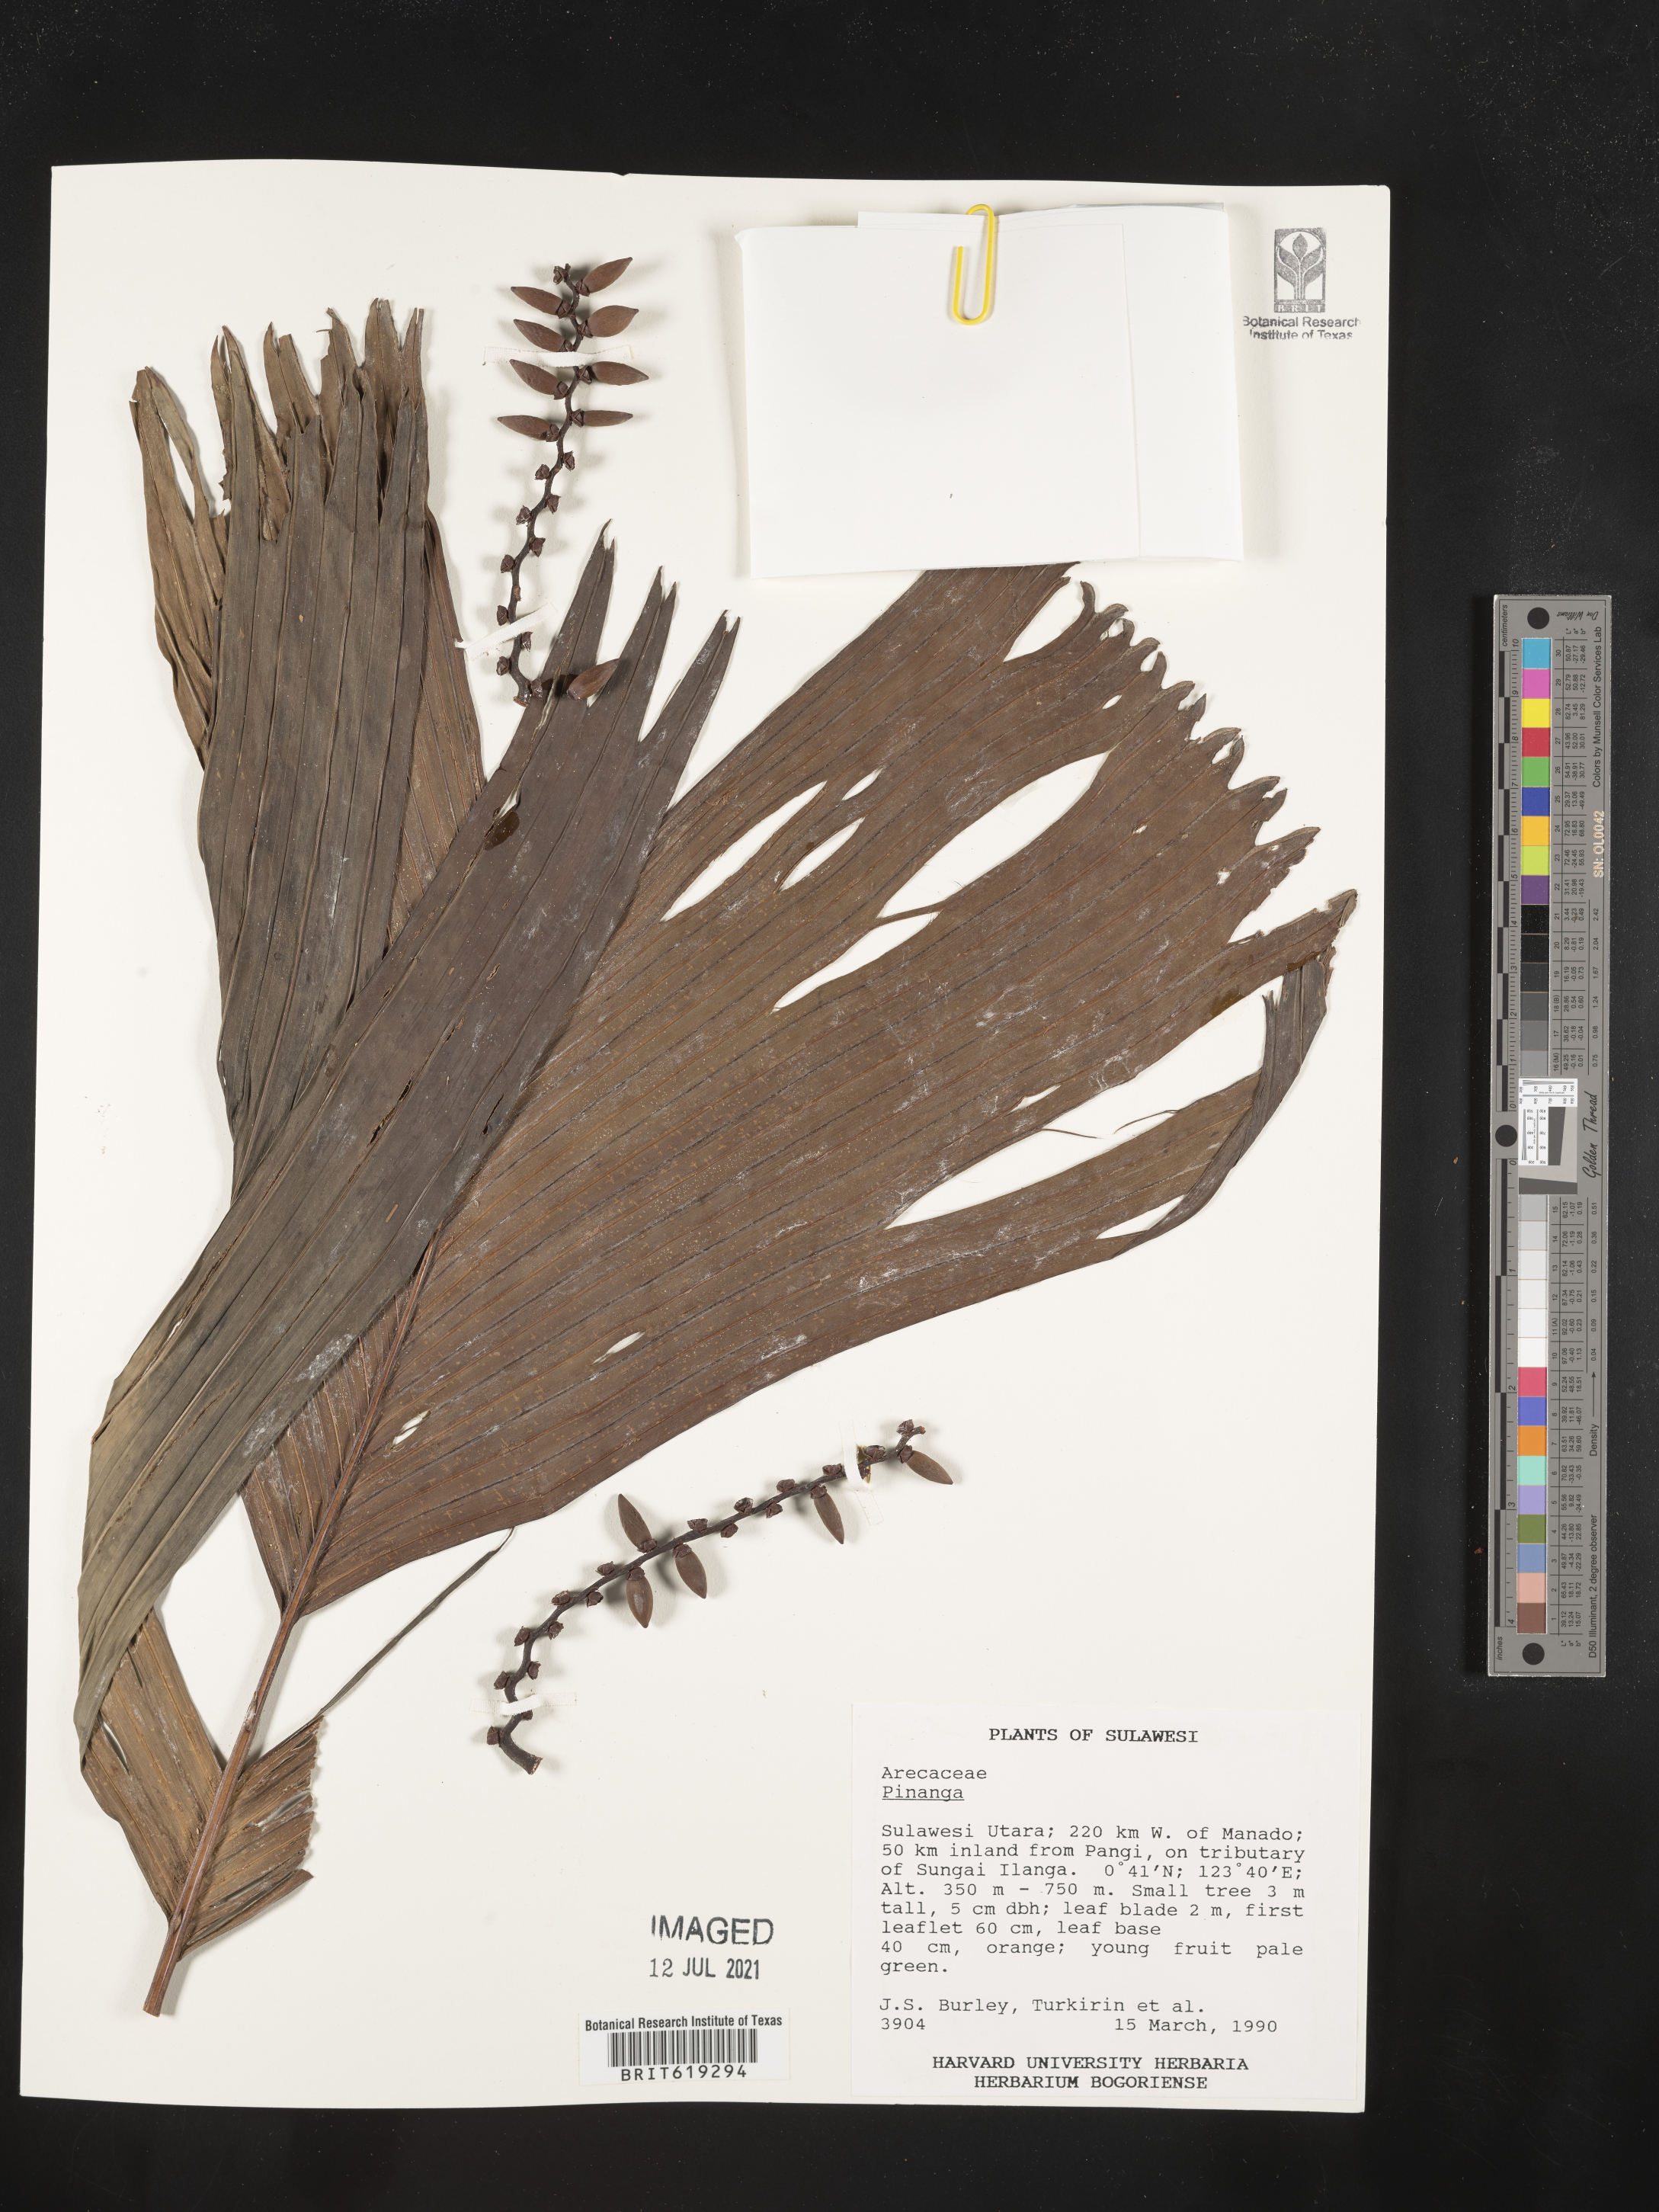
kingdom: Plantae
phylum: Tracheophyta
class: Liliopsida
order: Arecales
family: Arecaceae
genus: Pinanga
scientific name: Pinanga
